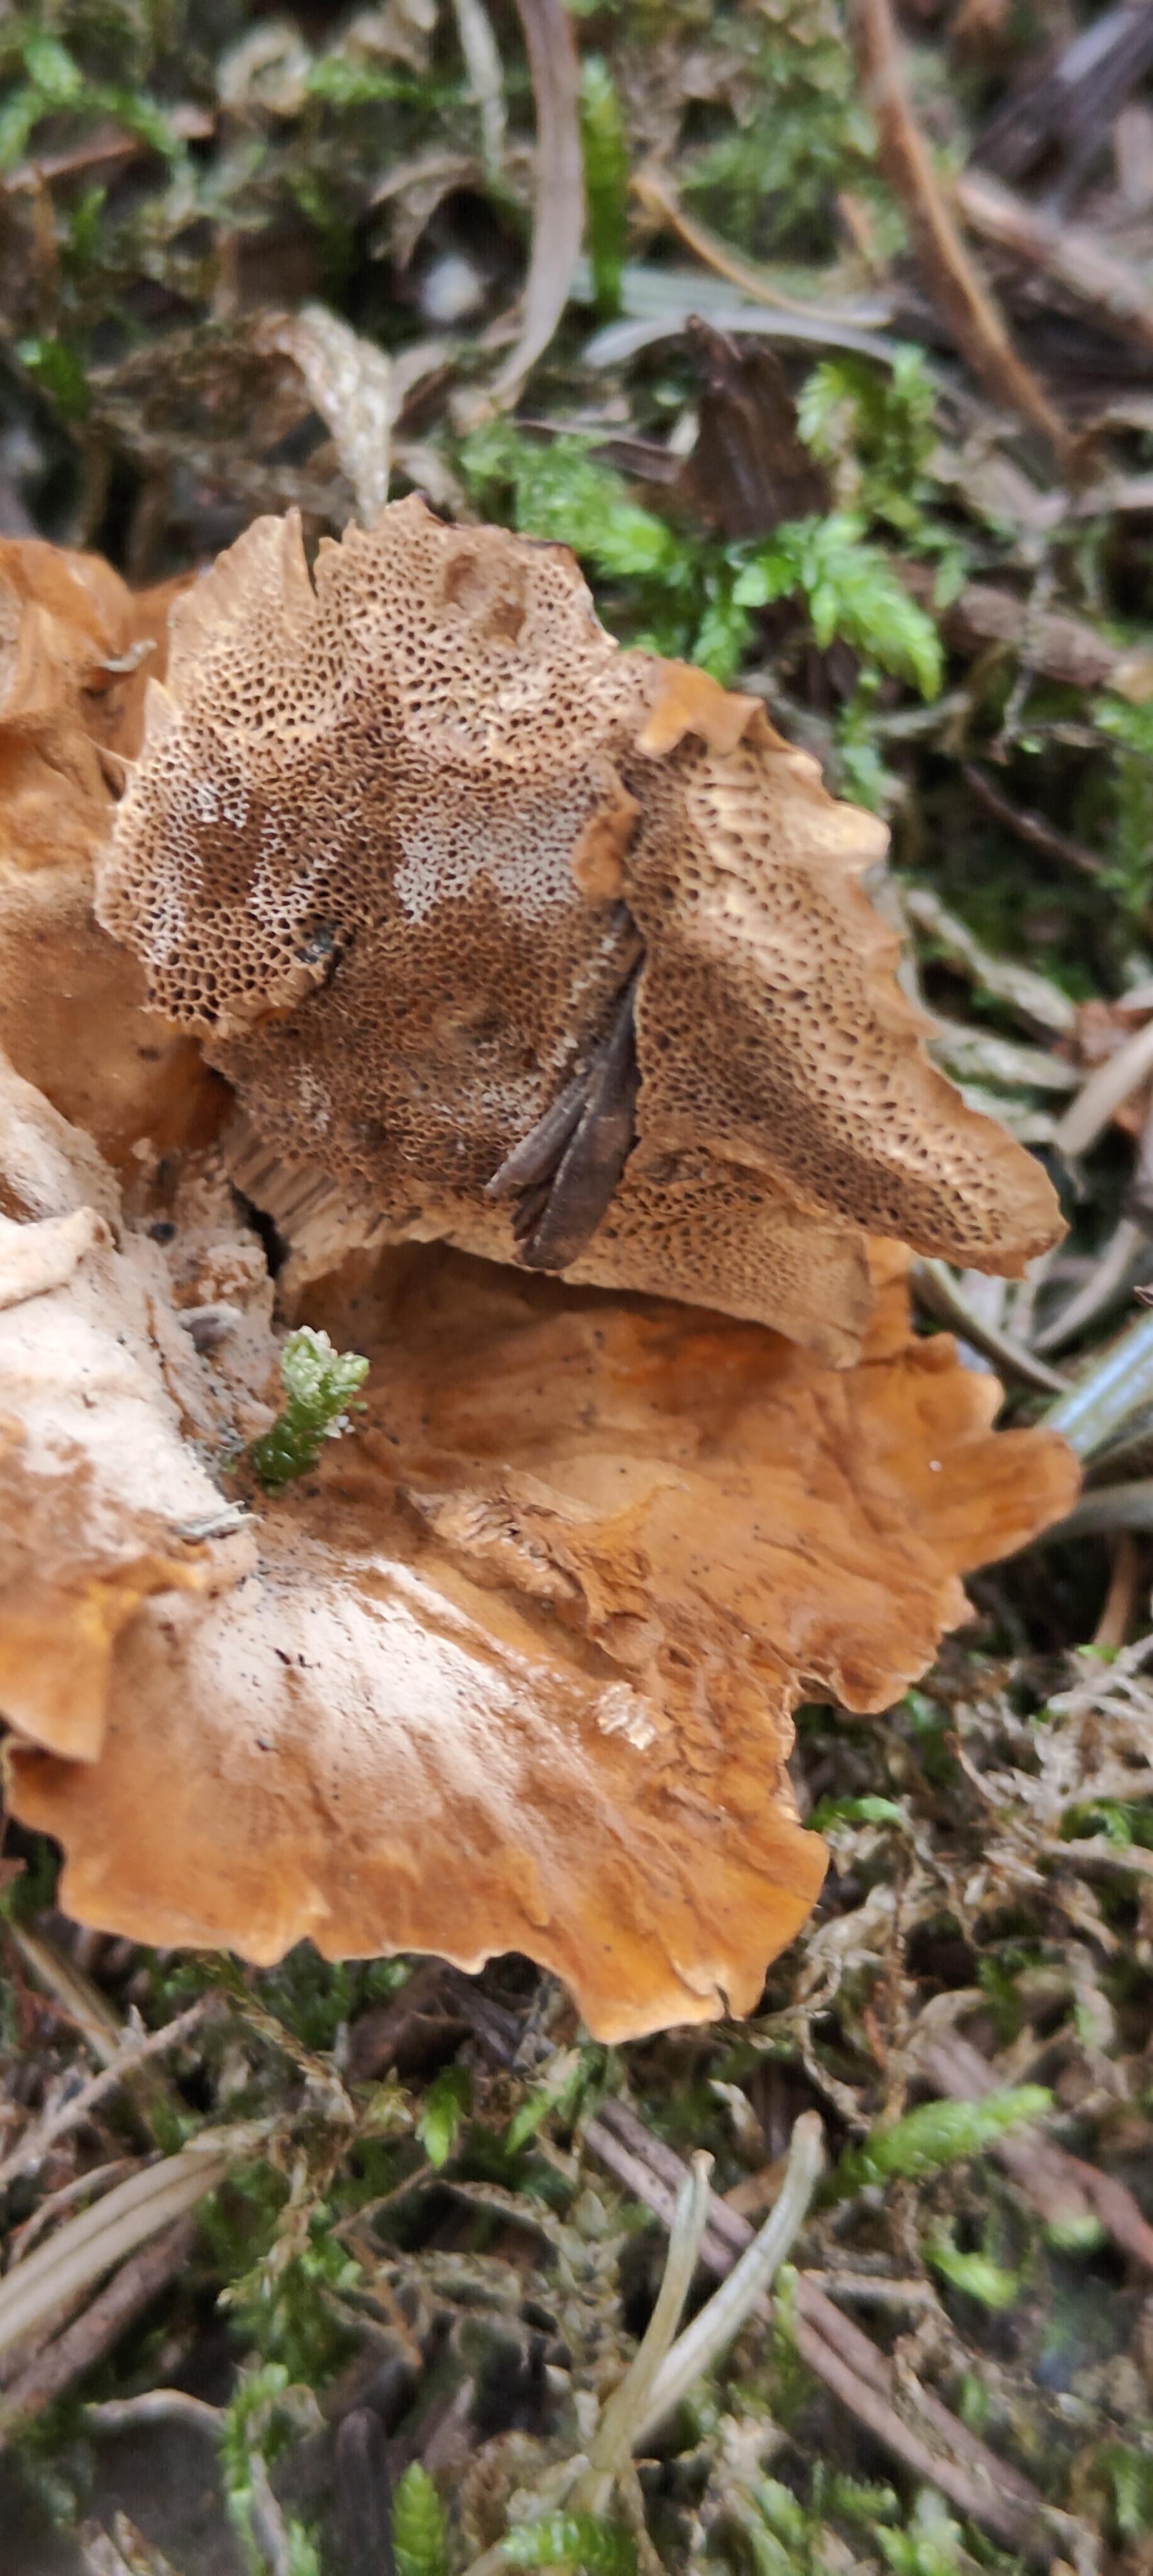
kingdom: Fungi
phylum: Basidiomycota
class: Agaricomycetes
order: Hymenochaetales
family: Hymenochaetaceae
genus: Coltricia
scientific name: Coltricia
